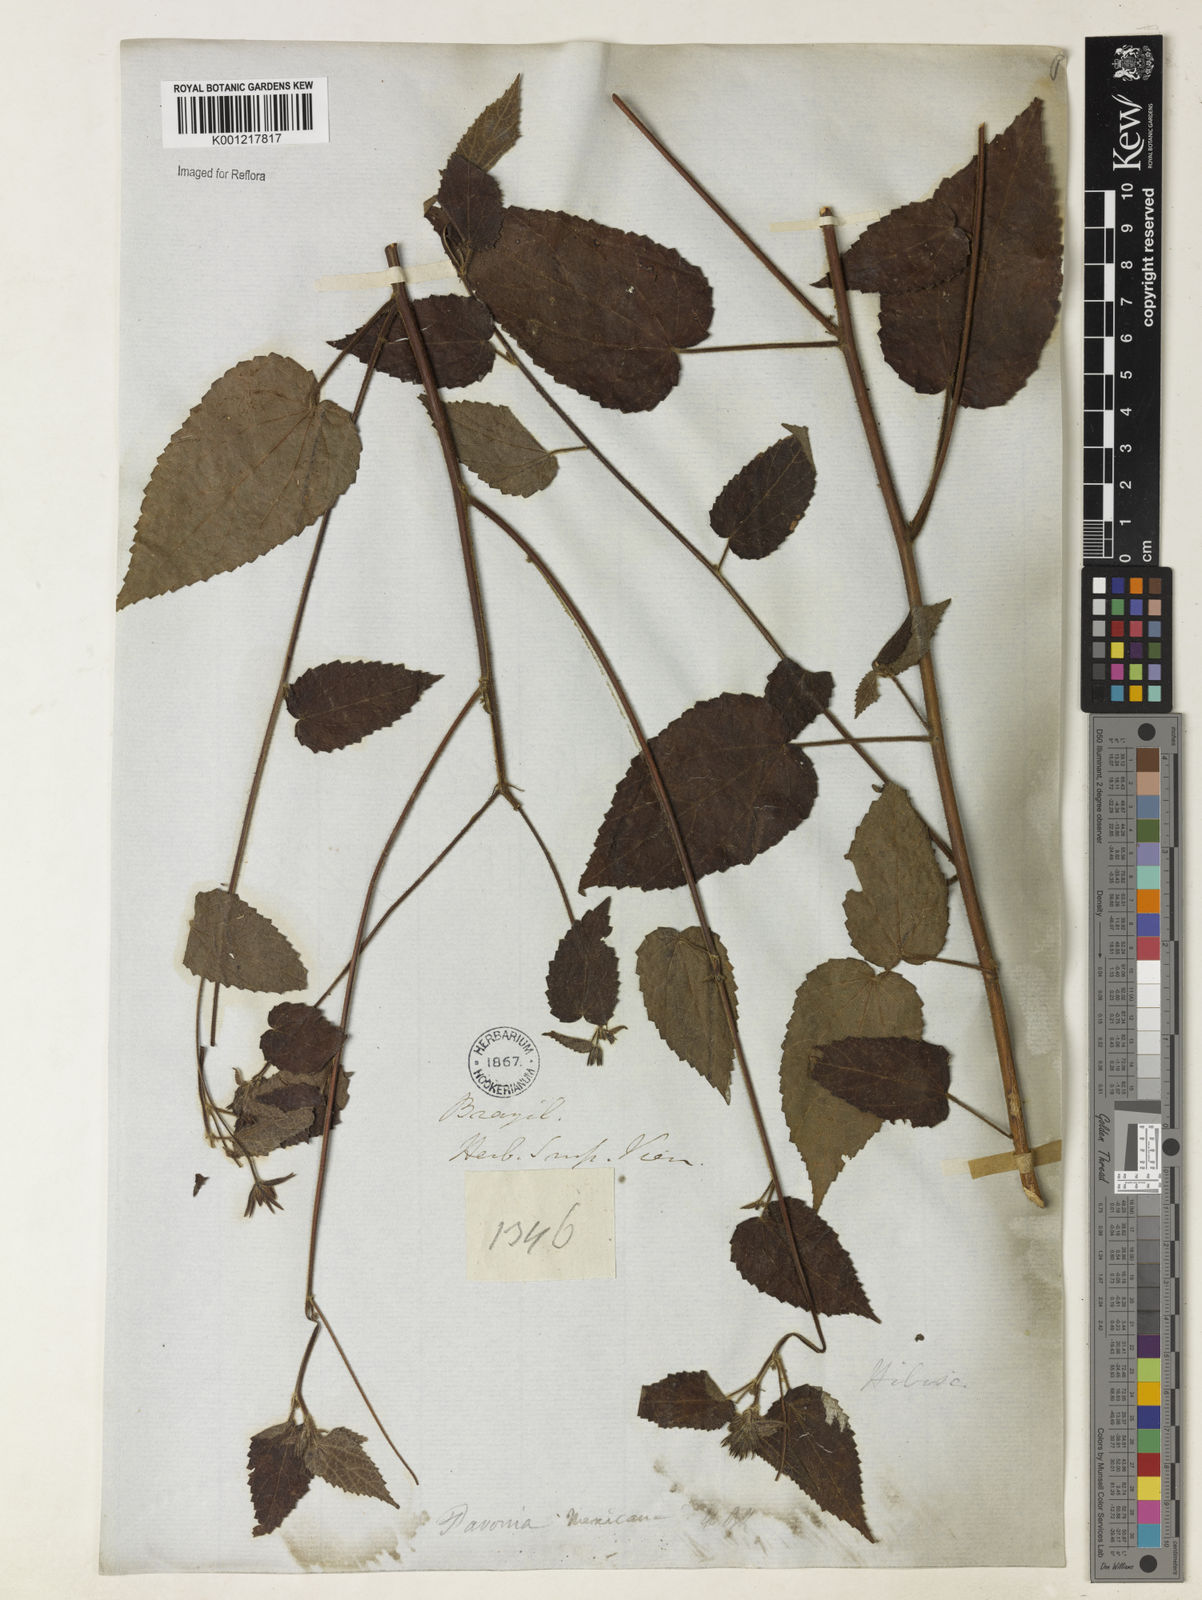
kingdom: Plantae
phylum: Tracheophyta
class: Magnoliopsida
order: Malvales
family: Malvaceae
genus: Pavonia
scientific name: Pavonia
